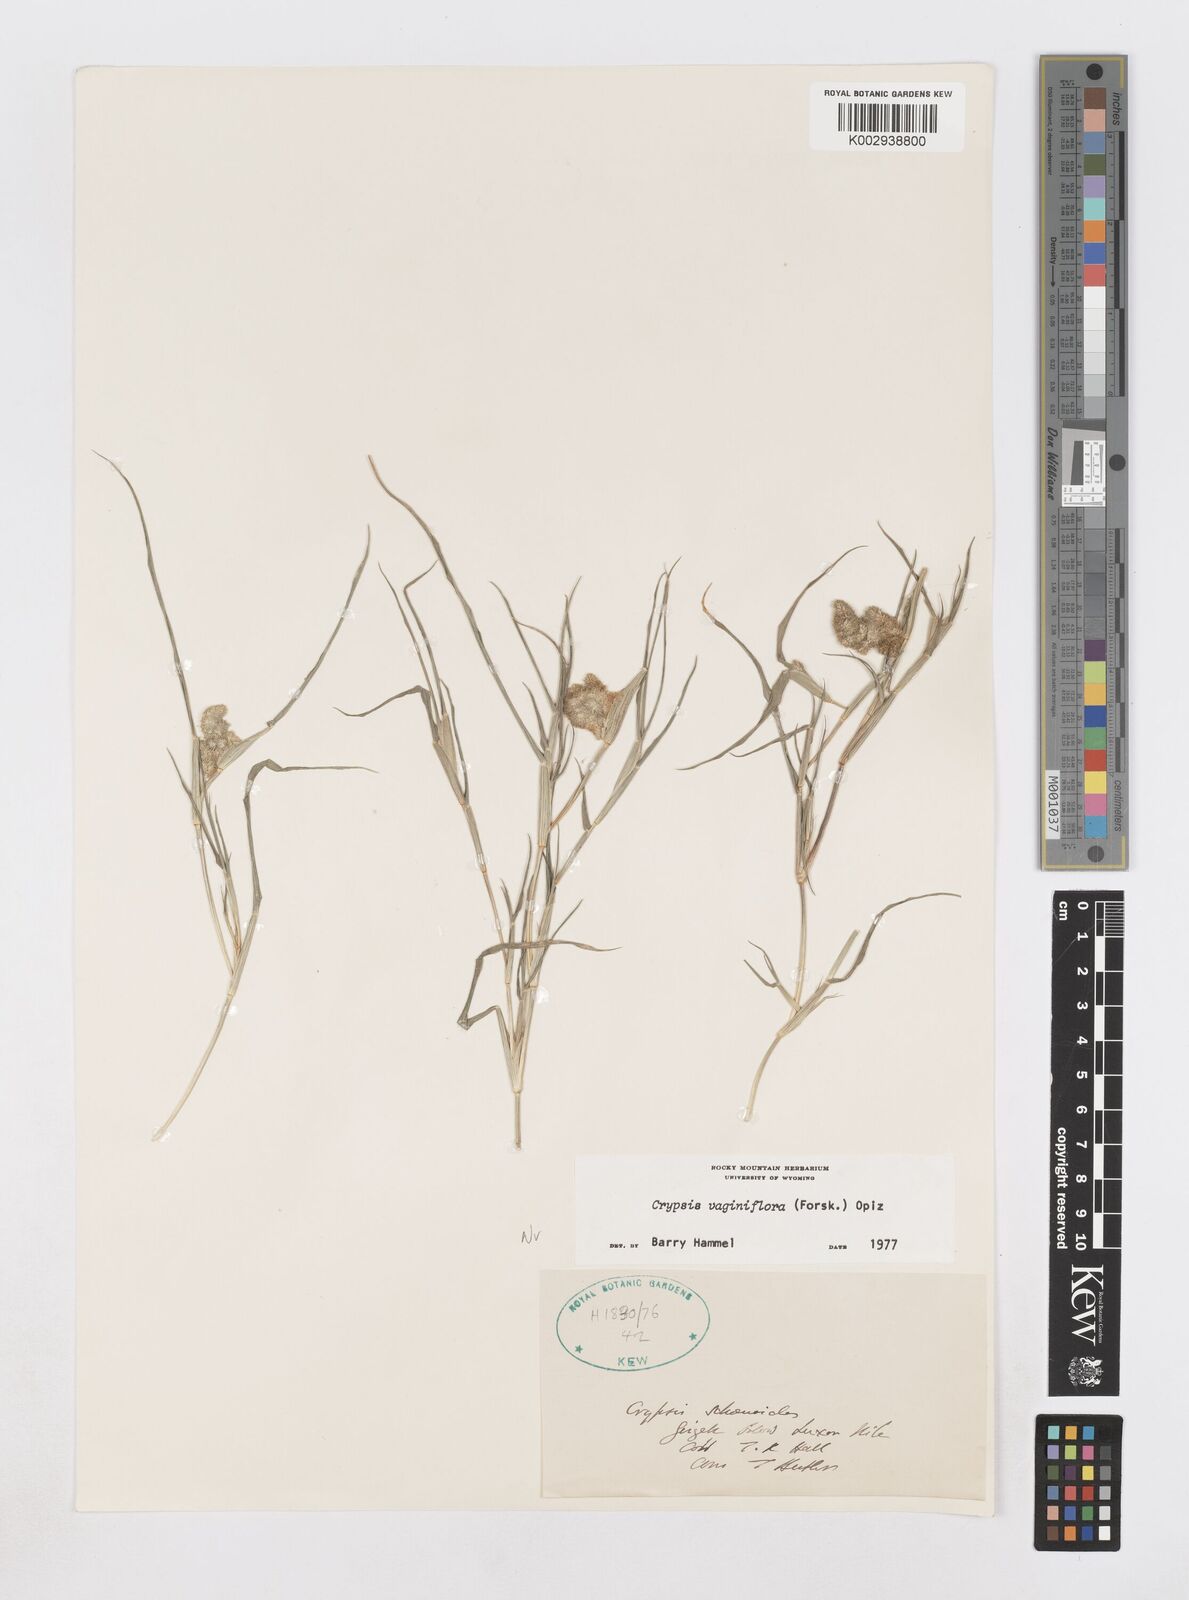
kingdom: Plantae
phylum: Tracheophyta
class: Liliopsida
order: Poales
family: Poaceae
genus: Sporobolus
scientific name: Sporobolus niliacus
